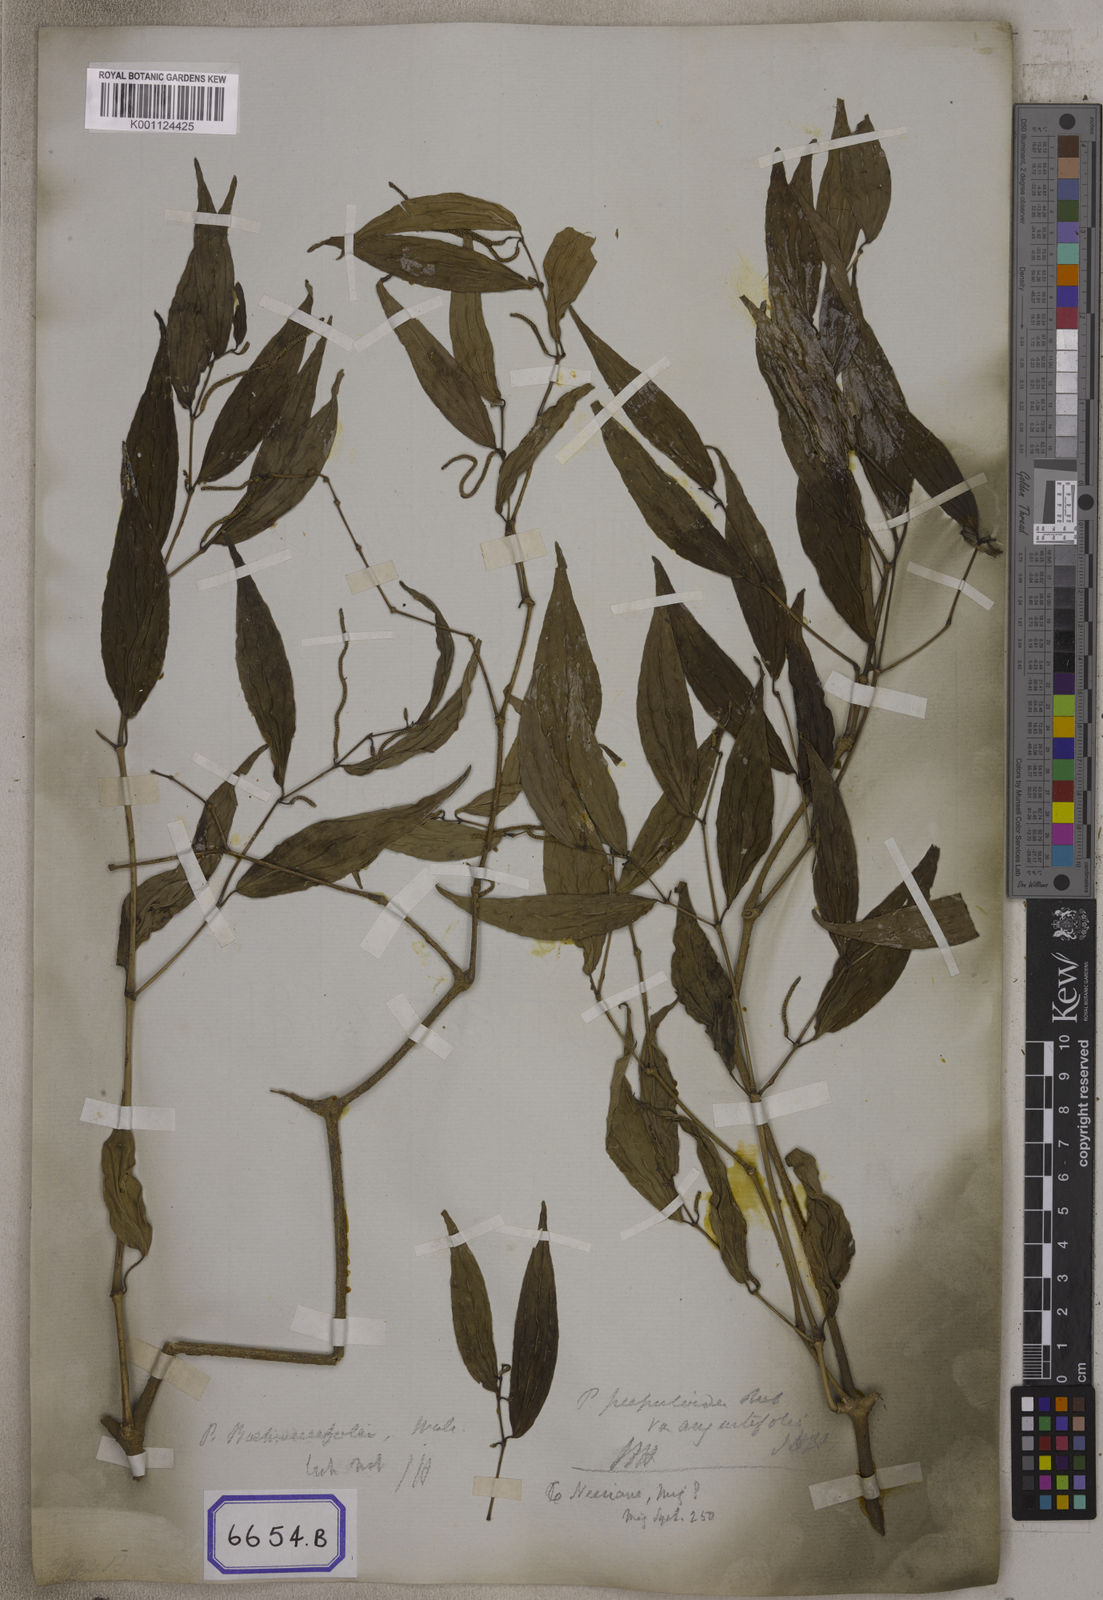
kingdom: Plantae
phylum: Tracheophyta
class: Magnoliopsida
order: Piperales
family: Piperaceae
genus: Piper
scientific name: Piper
